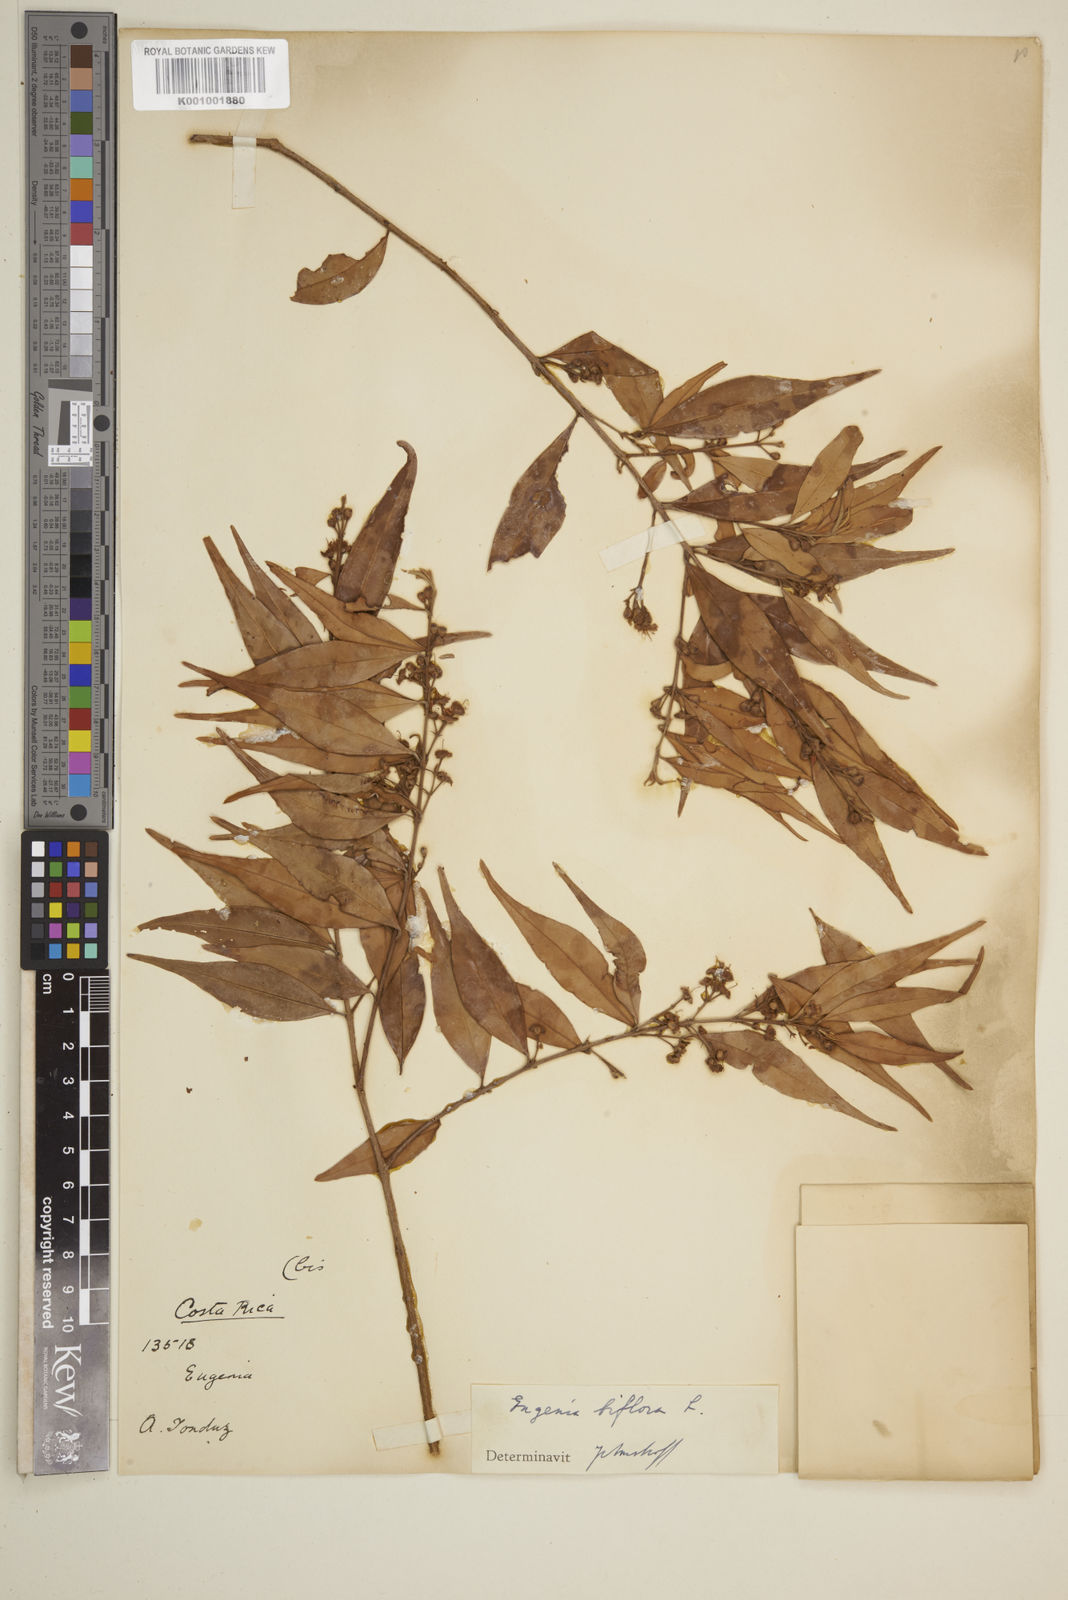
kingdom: Plantae
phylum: Tracheophyta
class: Magnoliopsida
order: Myrtales
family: Myrtaceae
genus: Eugenia
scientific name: Eugenia biflora
